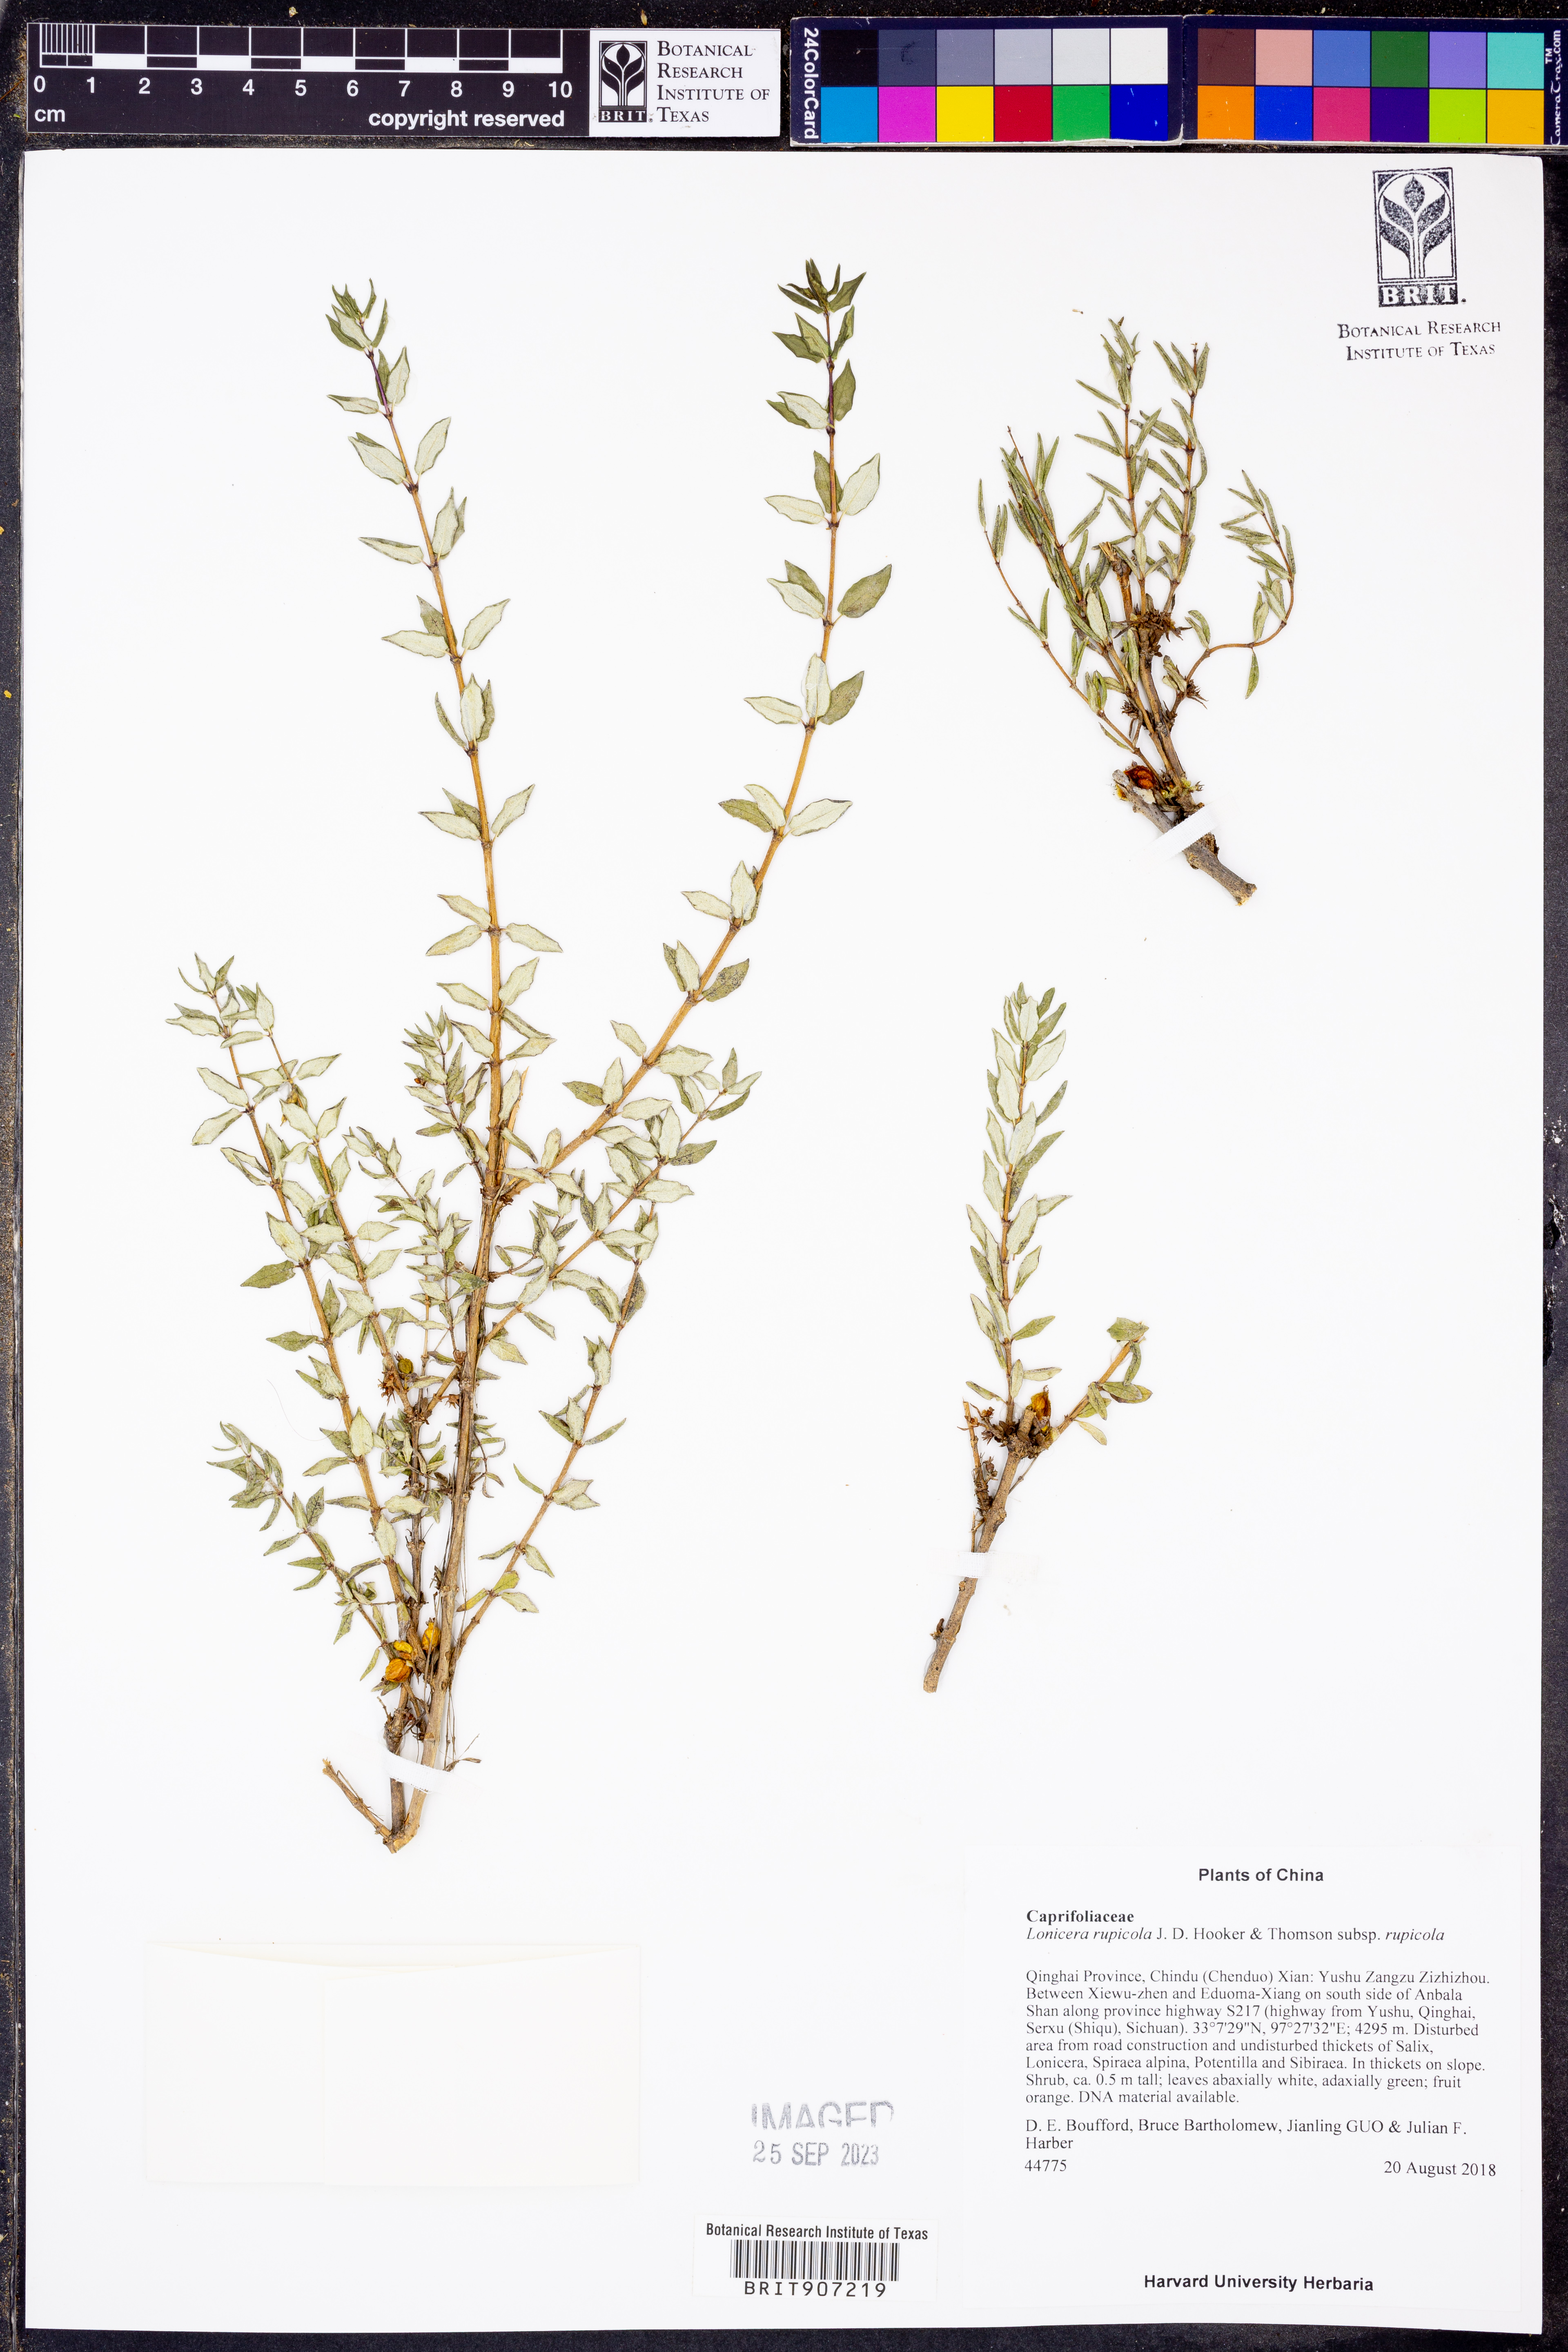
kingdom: Plantae
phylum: Tracheophyta
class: Magnoliopsida
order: Dipsacales
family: Caprifoliaceae
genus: Lonicera
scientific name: Lonicera rupicola
